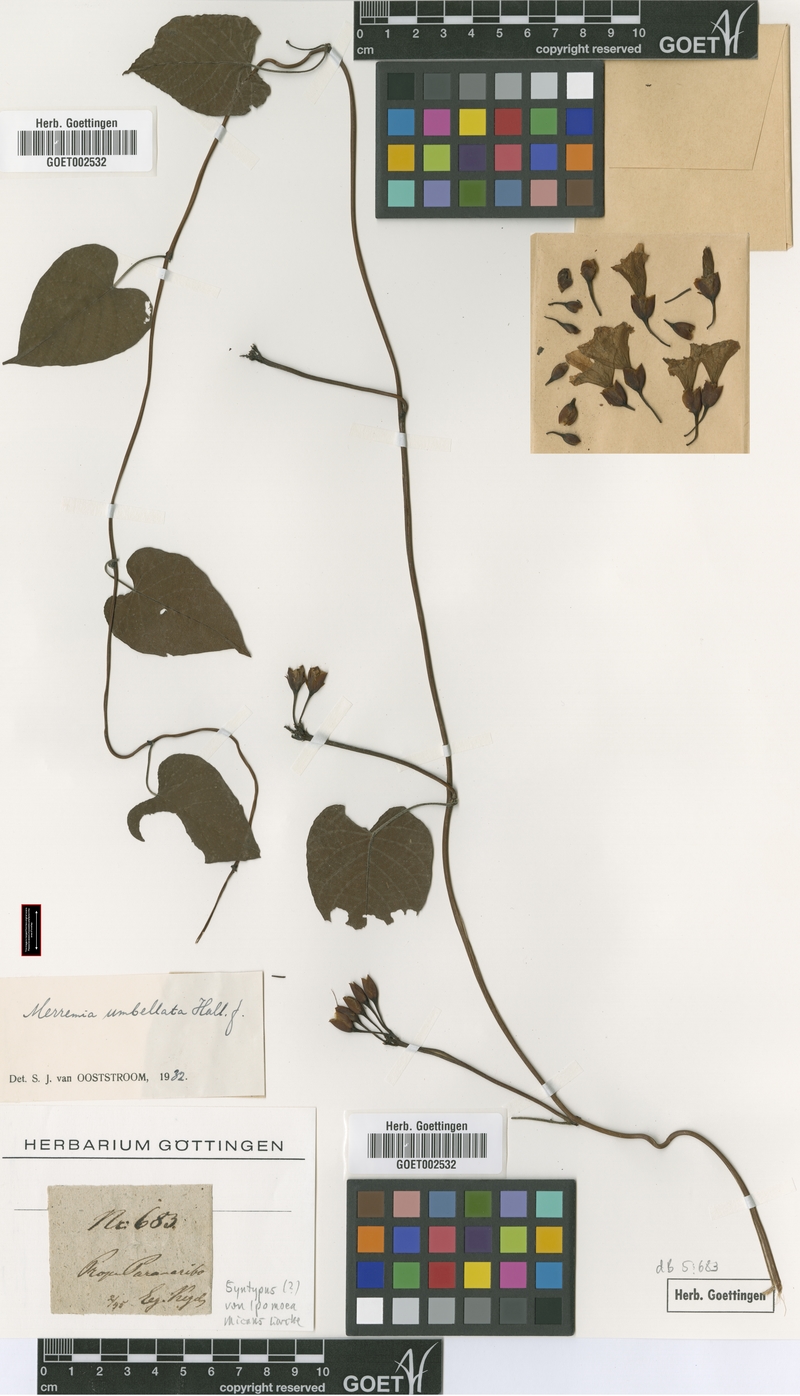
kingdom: Plantae
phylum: Tracheophyta
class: Magnoliopsida
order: Solanales
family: Convolvulaceae
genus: Camonea
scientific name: Camonea umbellata
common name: Hogvine
